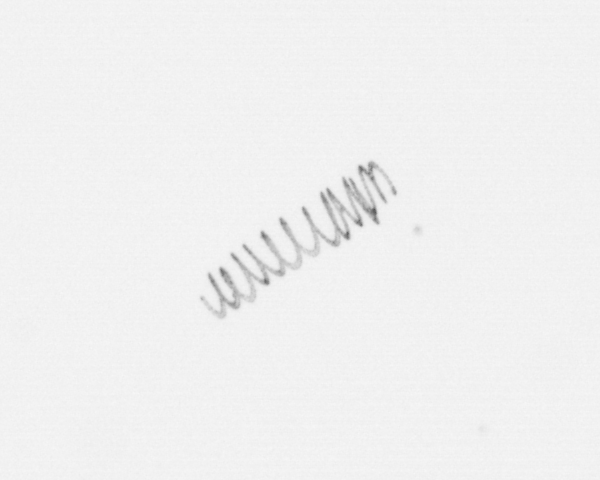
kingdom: Chromista
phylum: Ochrophyta
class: Bacillariophyceae
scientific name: Bacillariophyceae
